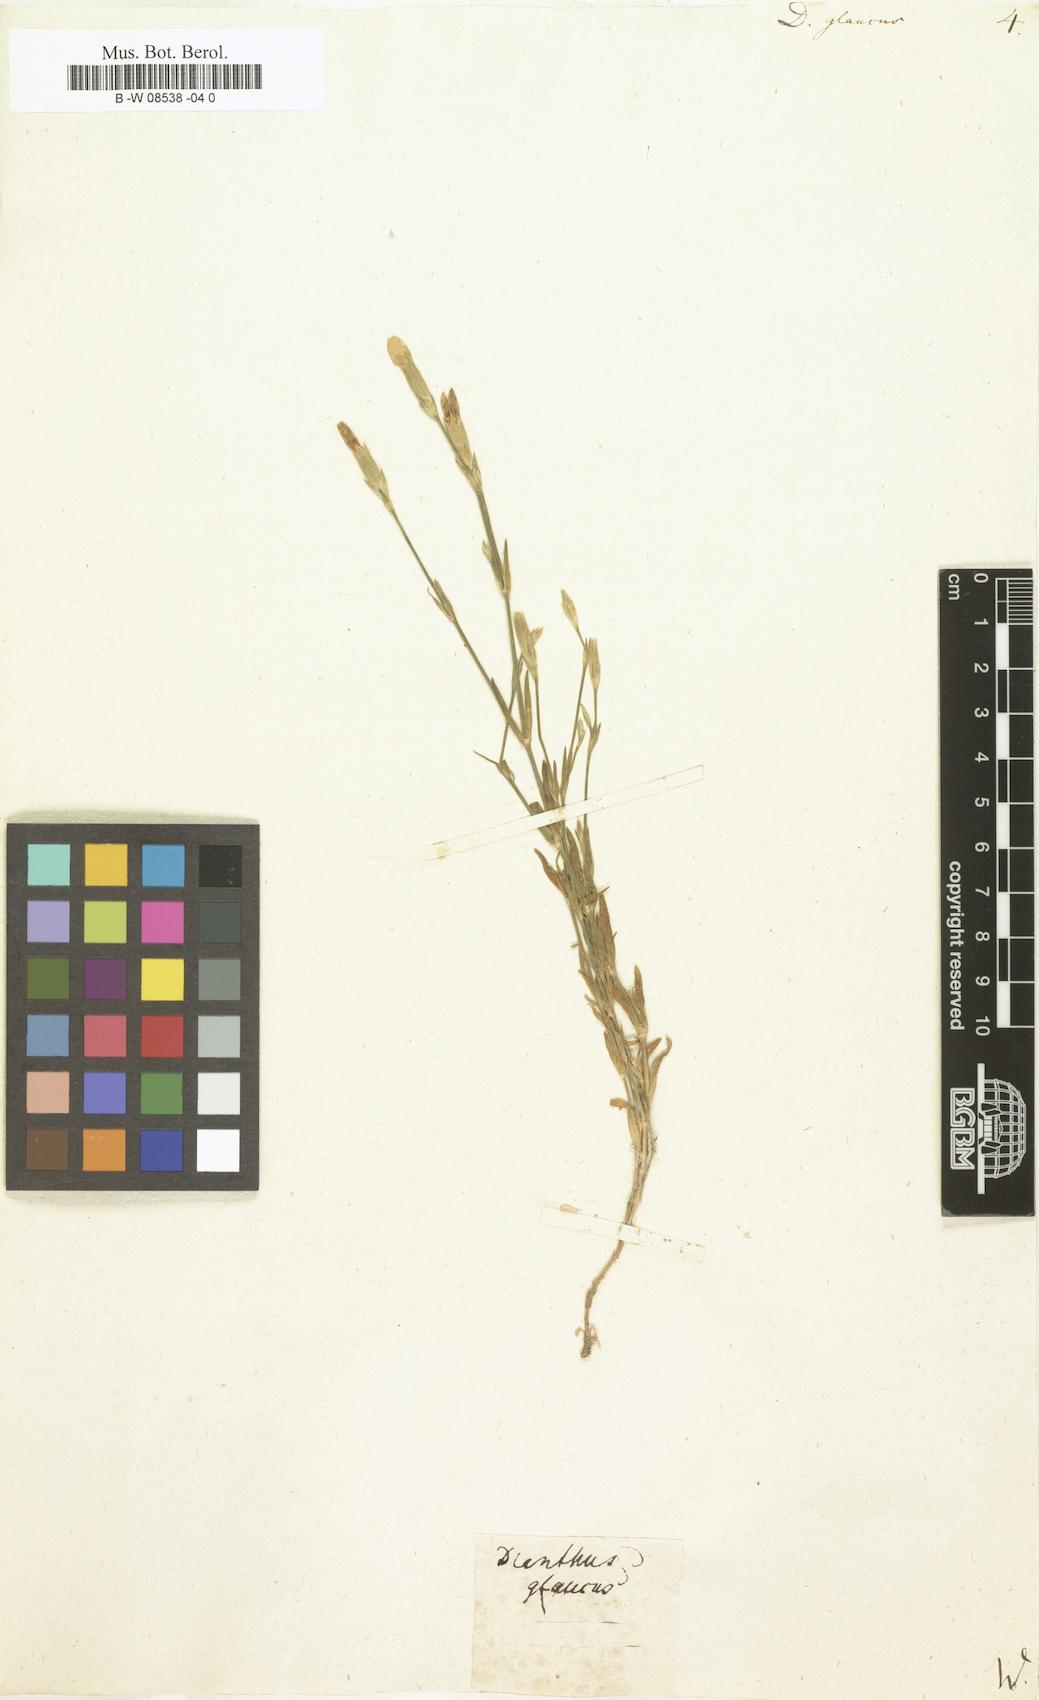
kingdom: Plantae
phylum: Tracheophyta
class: Magnoliopsida
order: Caryophyllales
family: Caryophyllaceae
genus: Dianthus
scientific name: Dianthus
